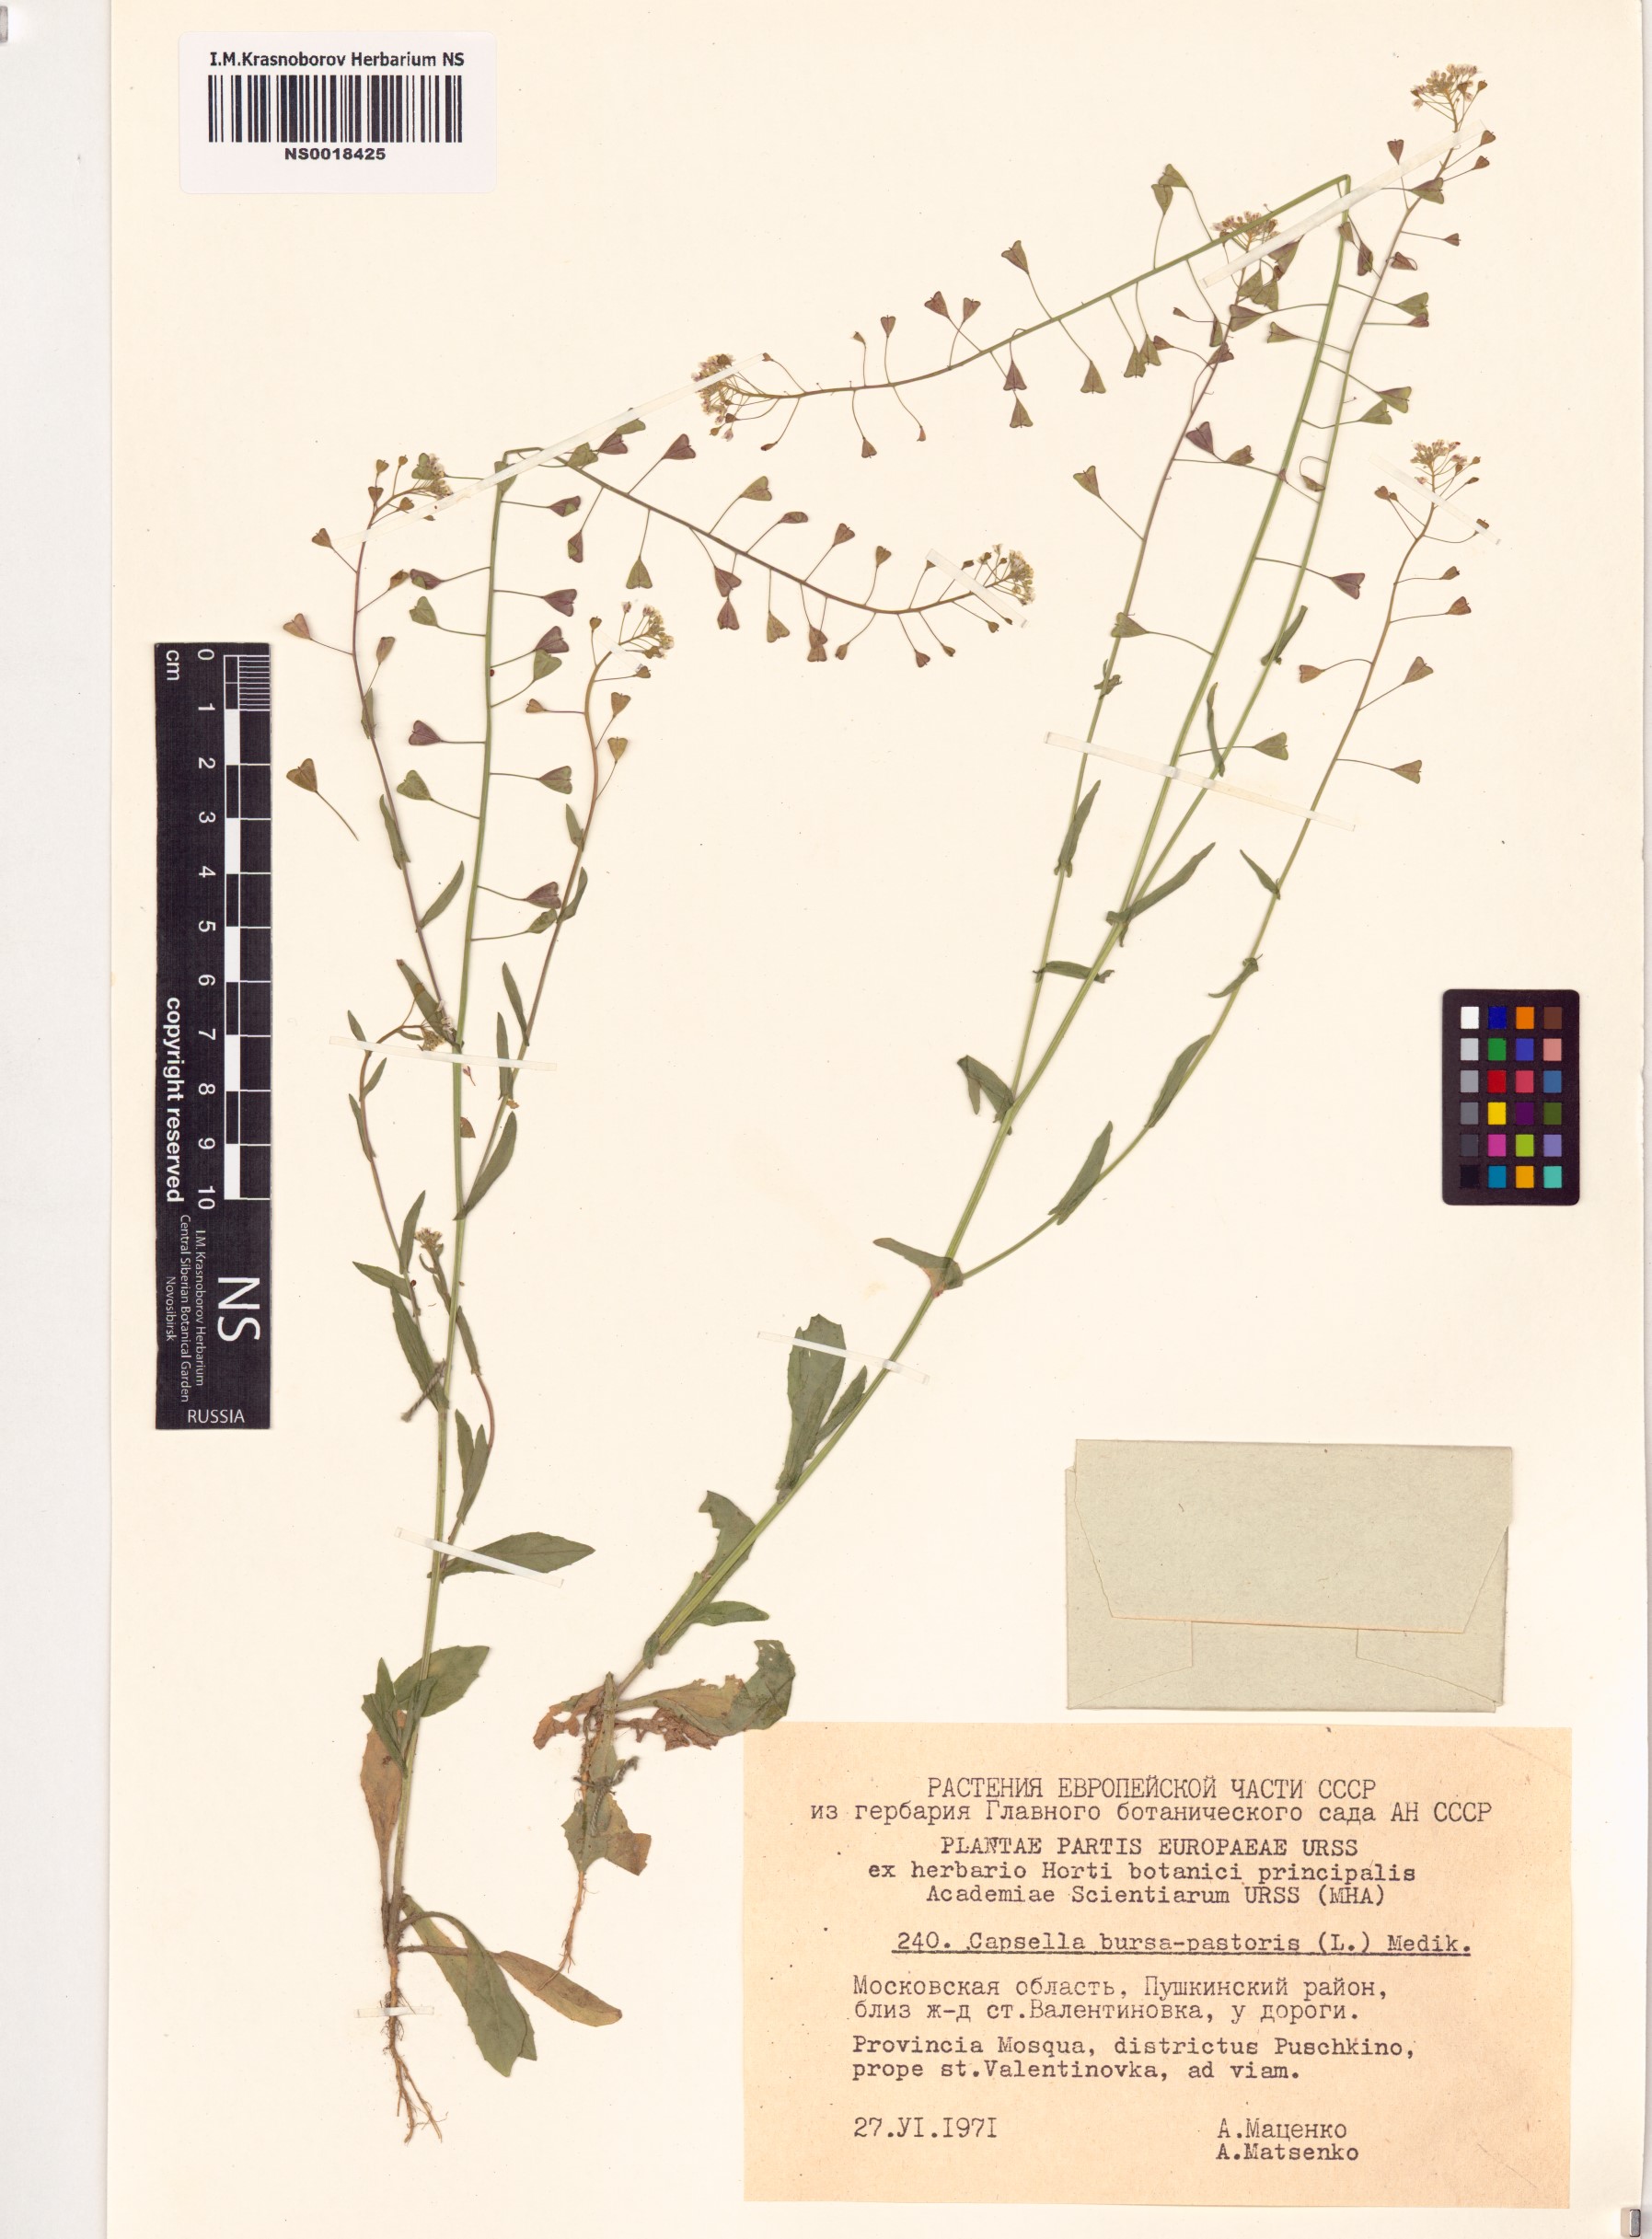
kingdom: Plantae
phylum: Tracheophyta
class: Magnoliopsida
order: Brassicales
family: Brassicaceae
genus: Capsella
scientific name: Capsella bursa-pastoris
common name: Shepherd's purse
